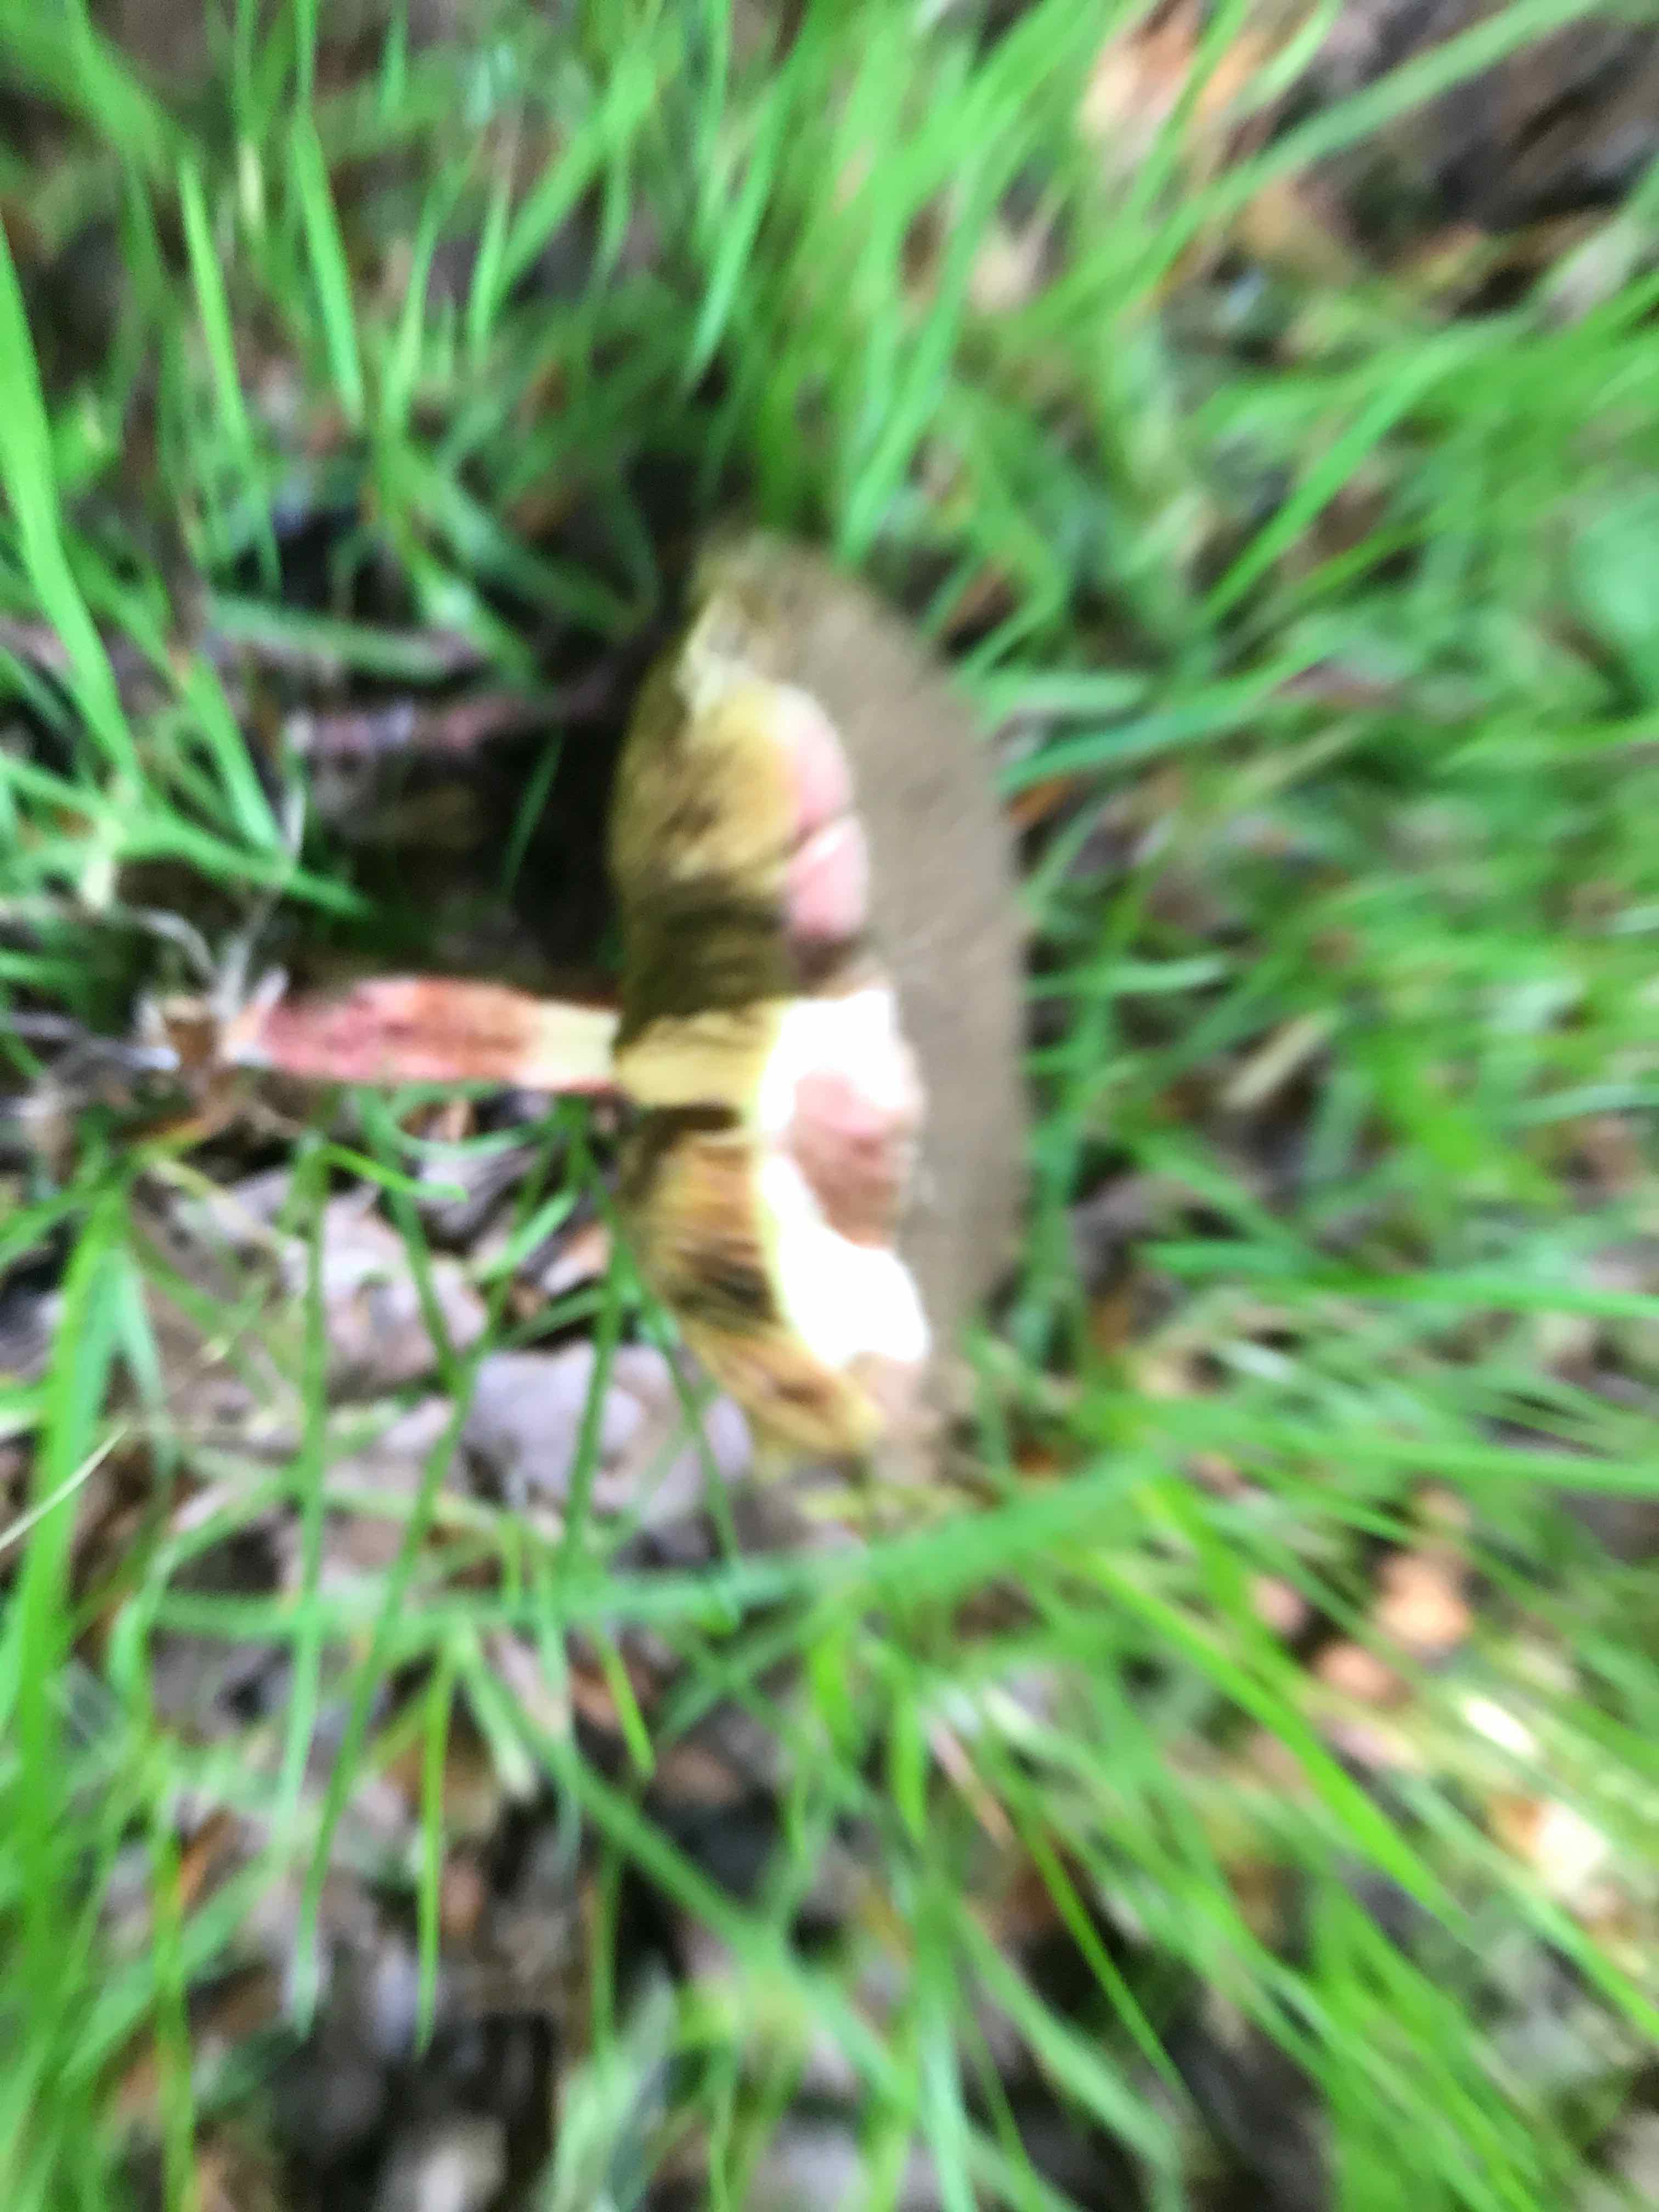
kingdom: Fungi
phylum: Basidiomycota
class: Agaricomycetes
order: Boletales
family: Boletaceae
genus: Xerocomellus
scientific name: Xerocomellus chrysenteron
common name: rødsprukken rørhat
